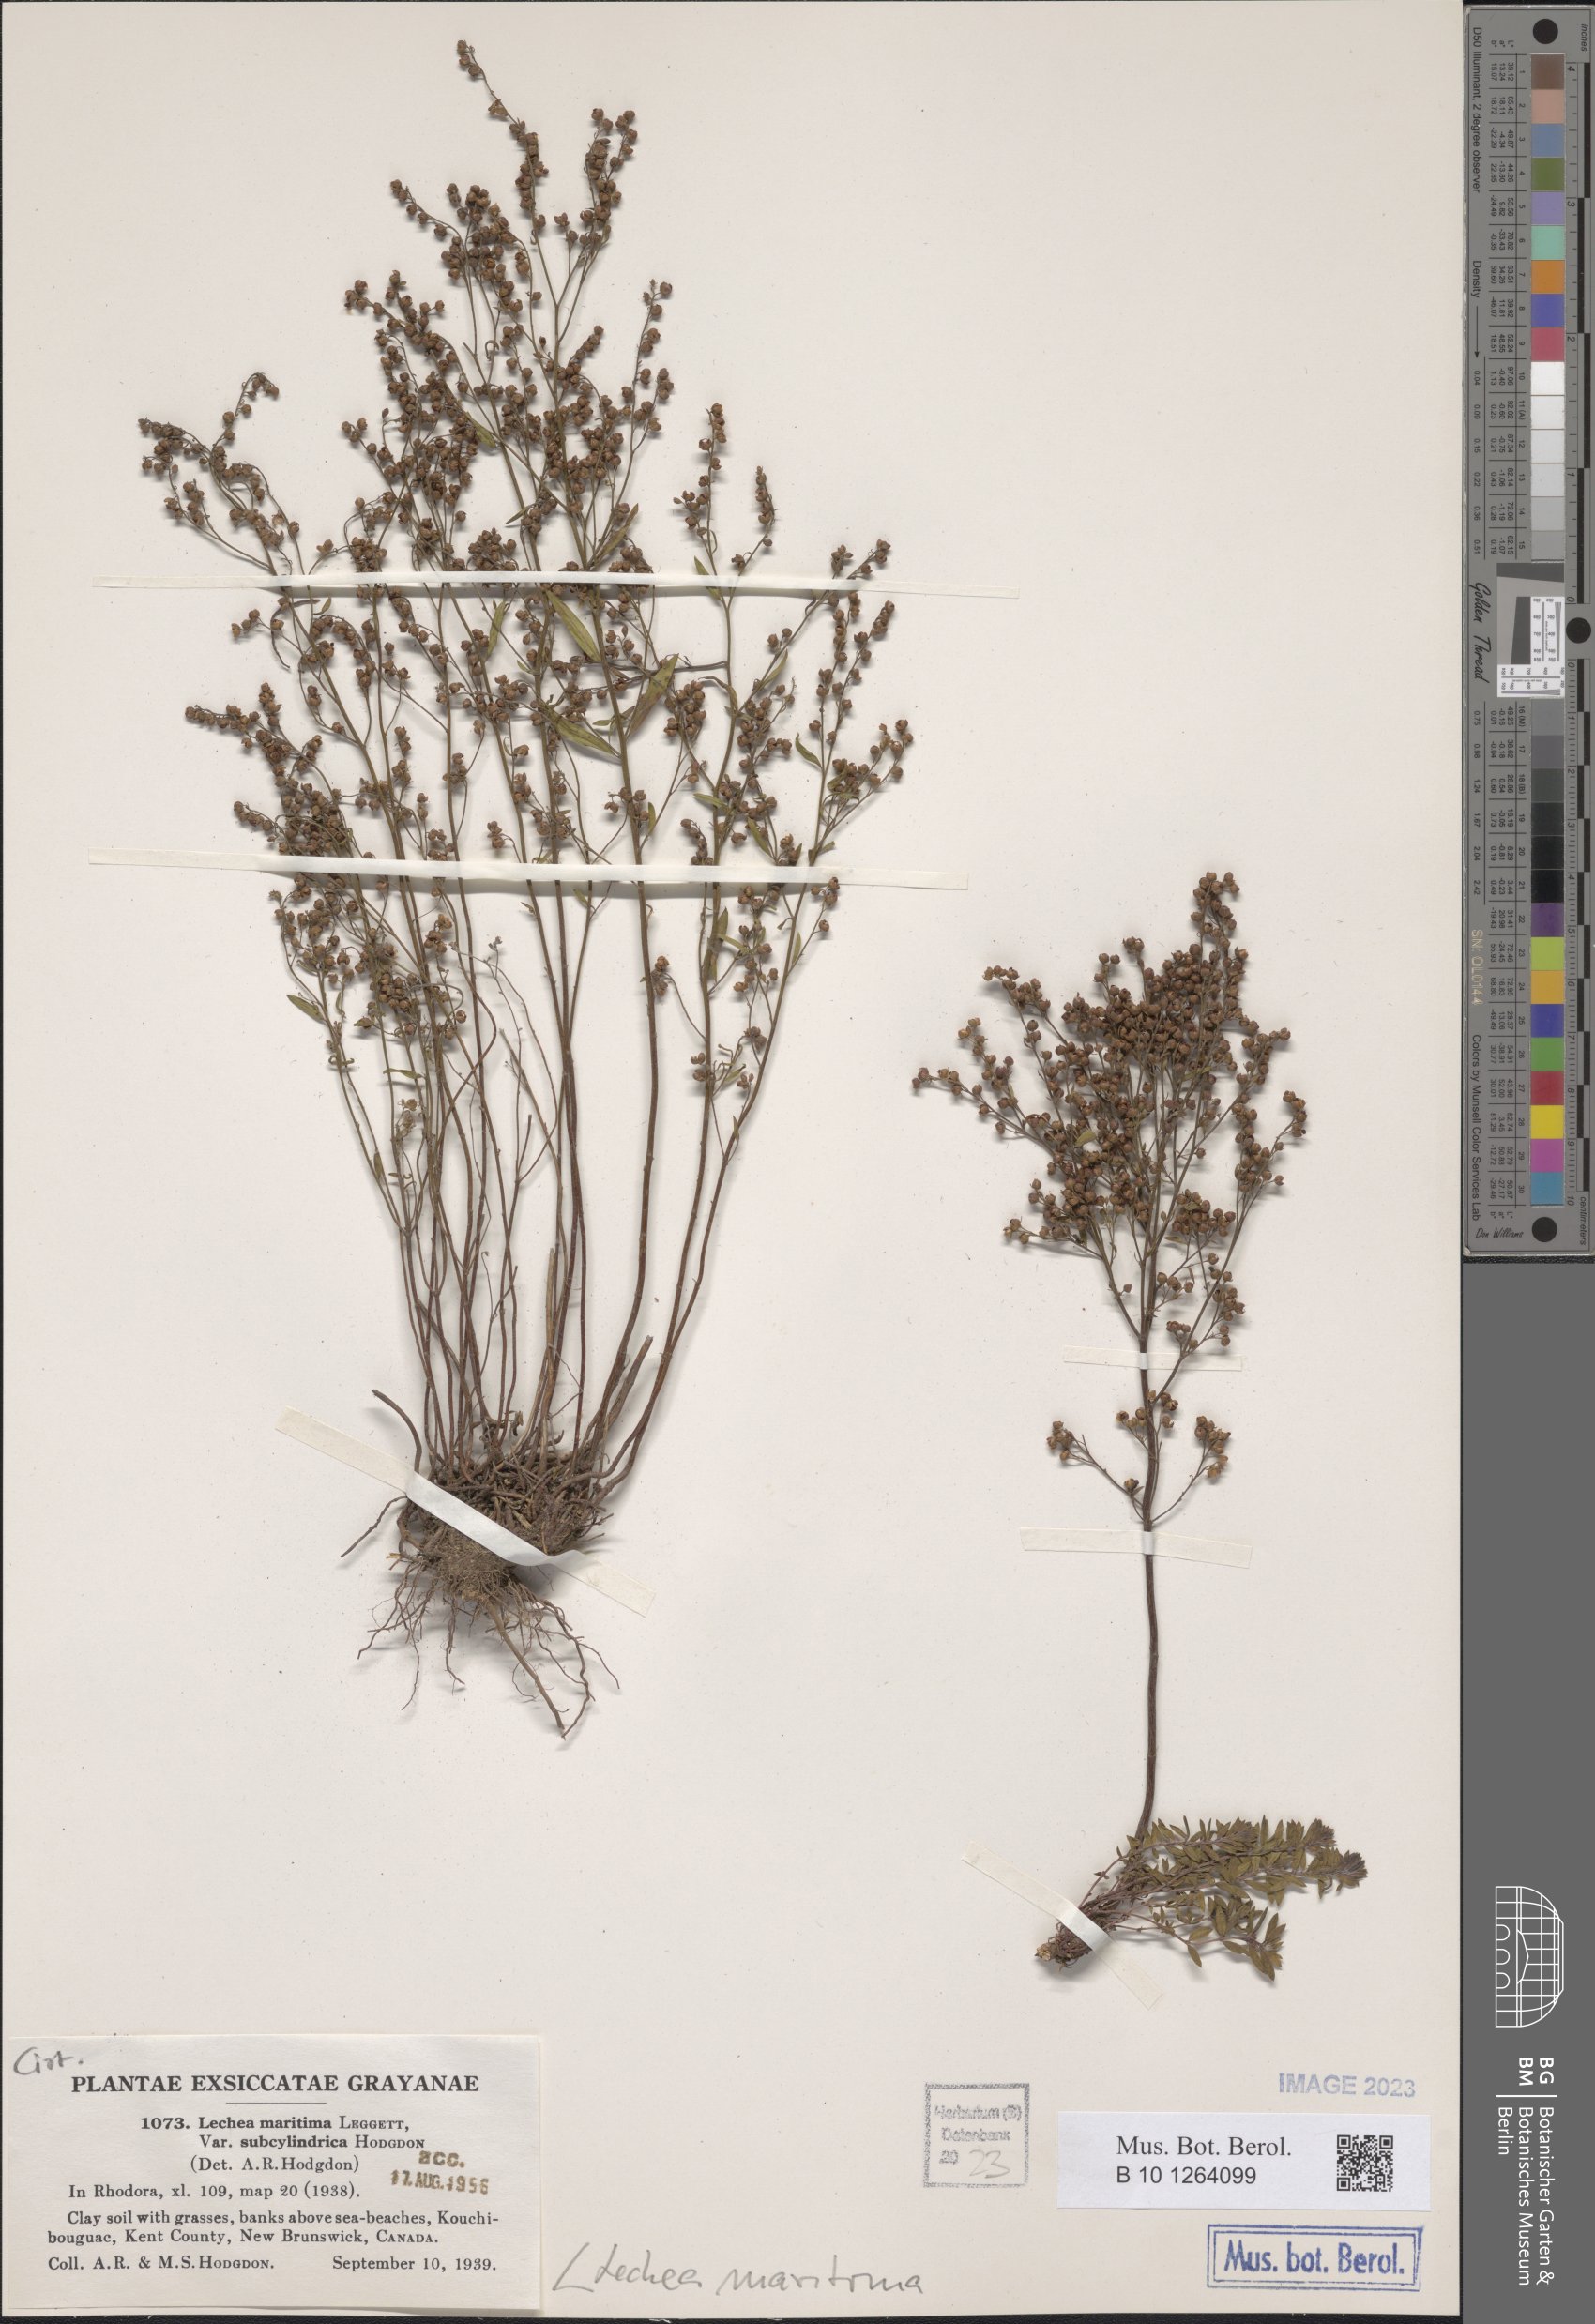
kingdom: Plantae
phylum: Tracheophyta
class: Magnoliopsida
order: Malvales
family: Cistaceae
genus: Lechea
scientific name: Lechea maritima
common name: Beach pinweed
